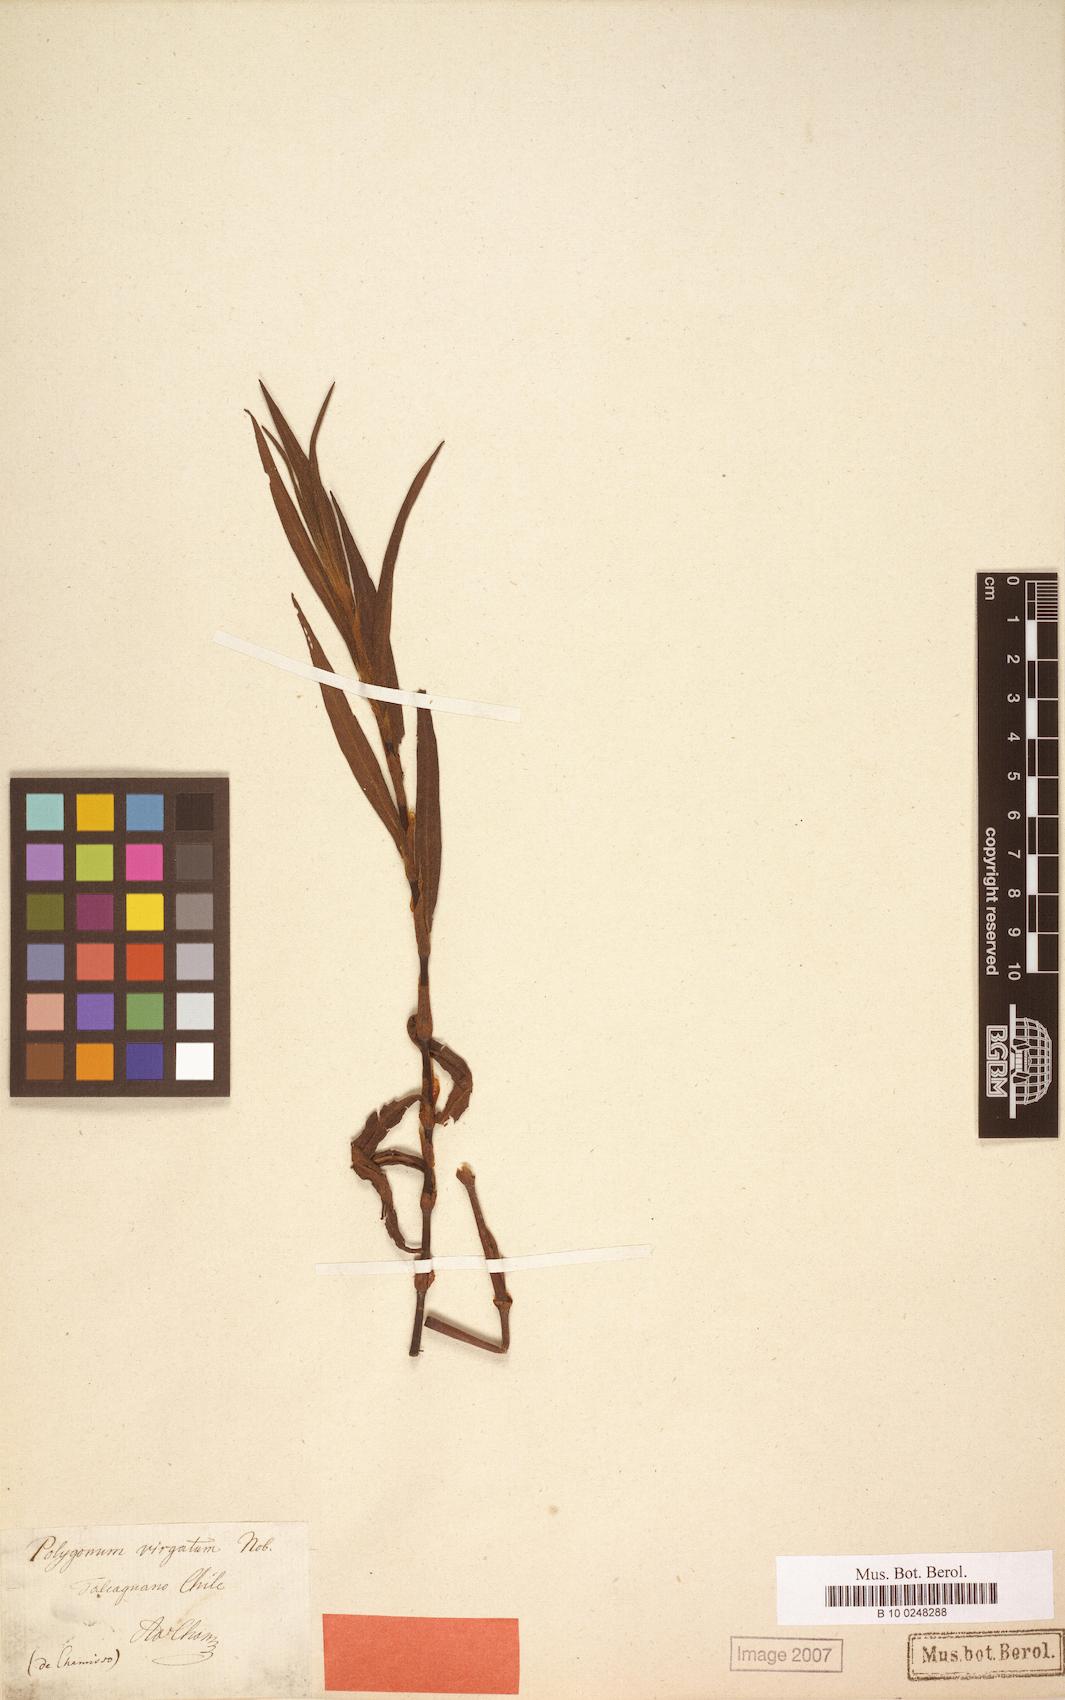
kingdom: Plantae
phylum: Tracheophyta
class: Magnoliopsida
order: Caryophyllales
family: Polygonaceae
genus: Persicaria
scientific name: Persicaria hydropiperoides
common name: Swamp smartweed
